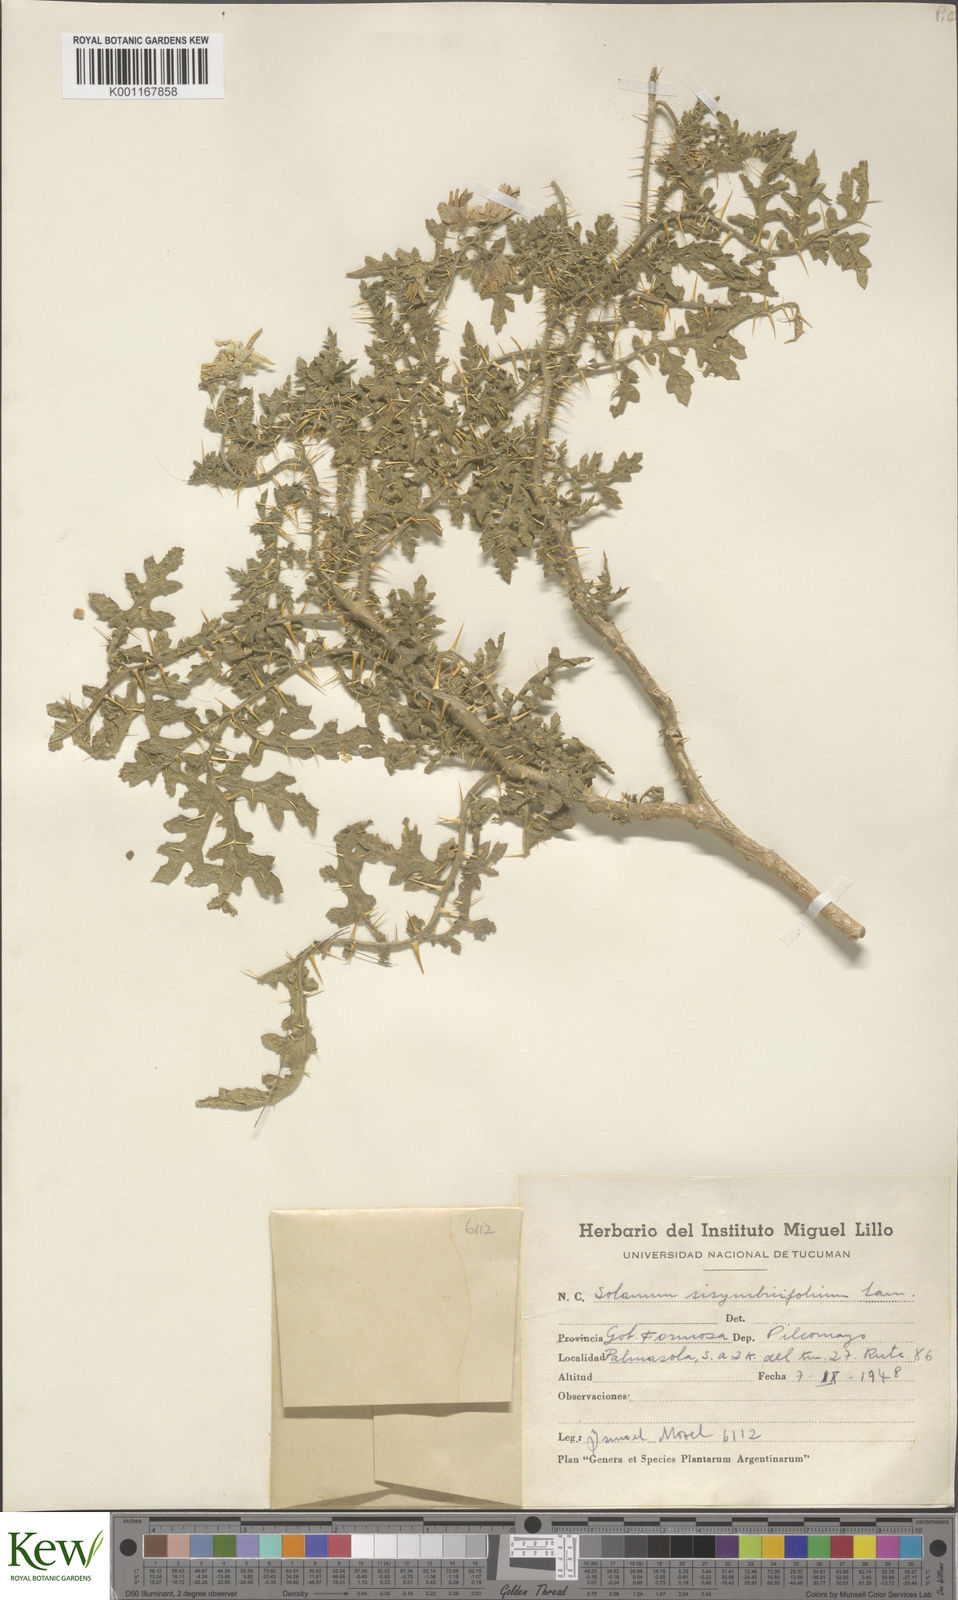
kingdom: Plantae
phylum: Tracheophyta
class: Magnoliopsida
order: Solanales
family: Solanaceae
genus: Solanum
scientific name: Solanum sisymbriifolium
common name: Red buffalo-bur
